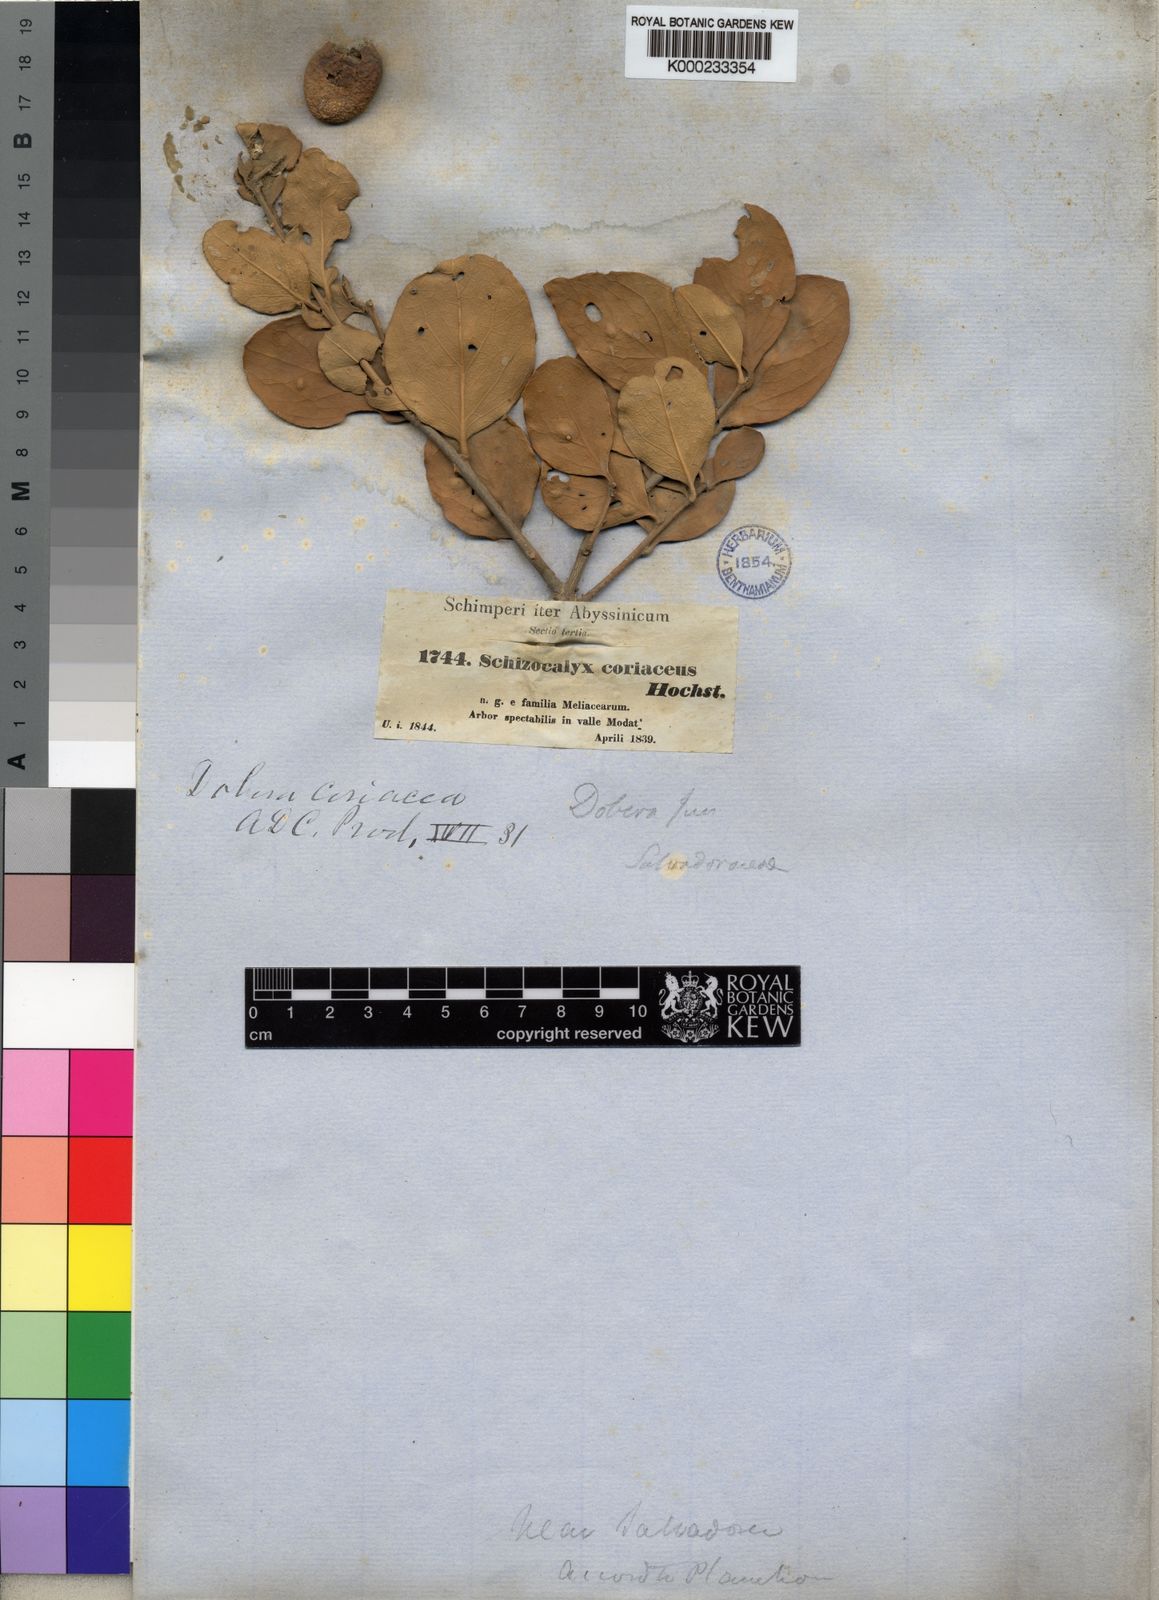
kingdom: Plantae
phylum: Tracheophyta
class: Magnoliopsida
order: Brassicales
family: Salvadoraceae
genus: Dobera
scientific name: Dobera glabra
